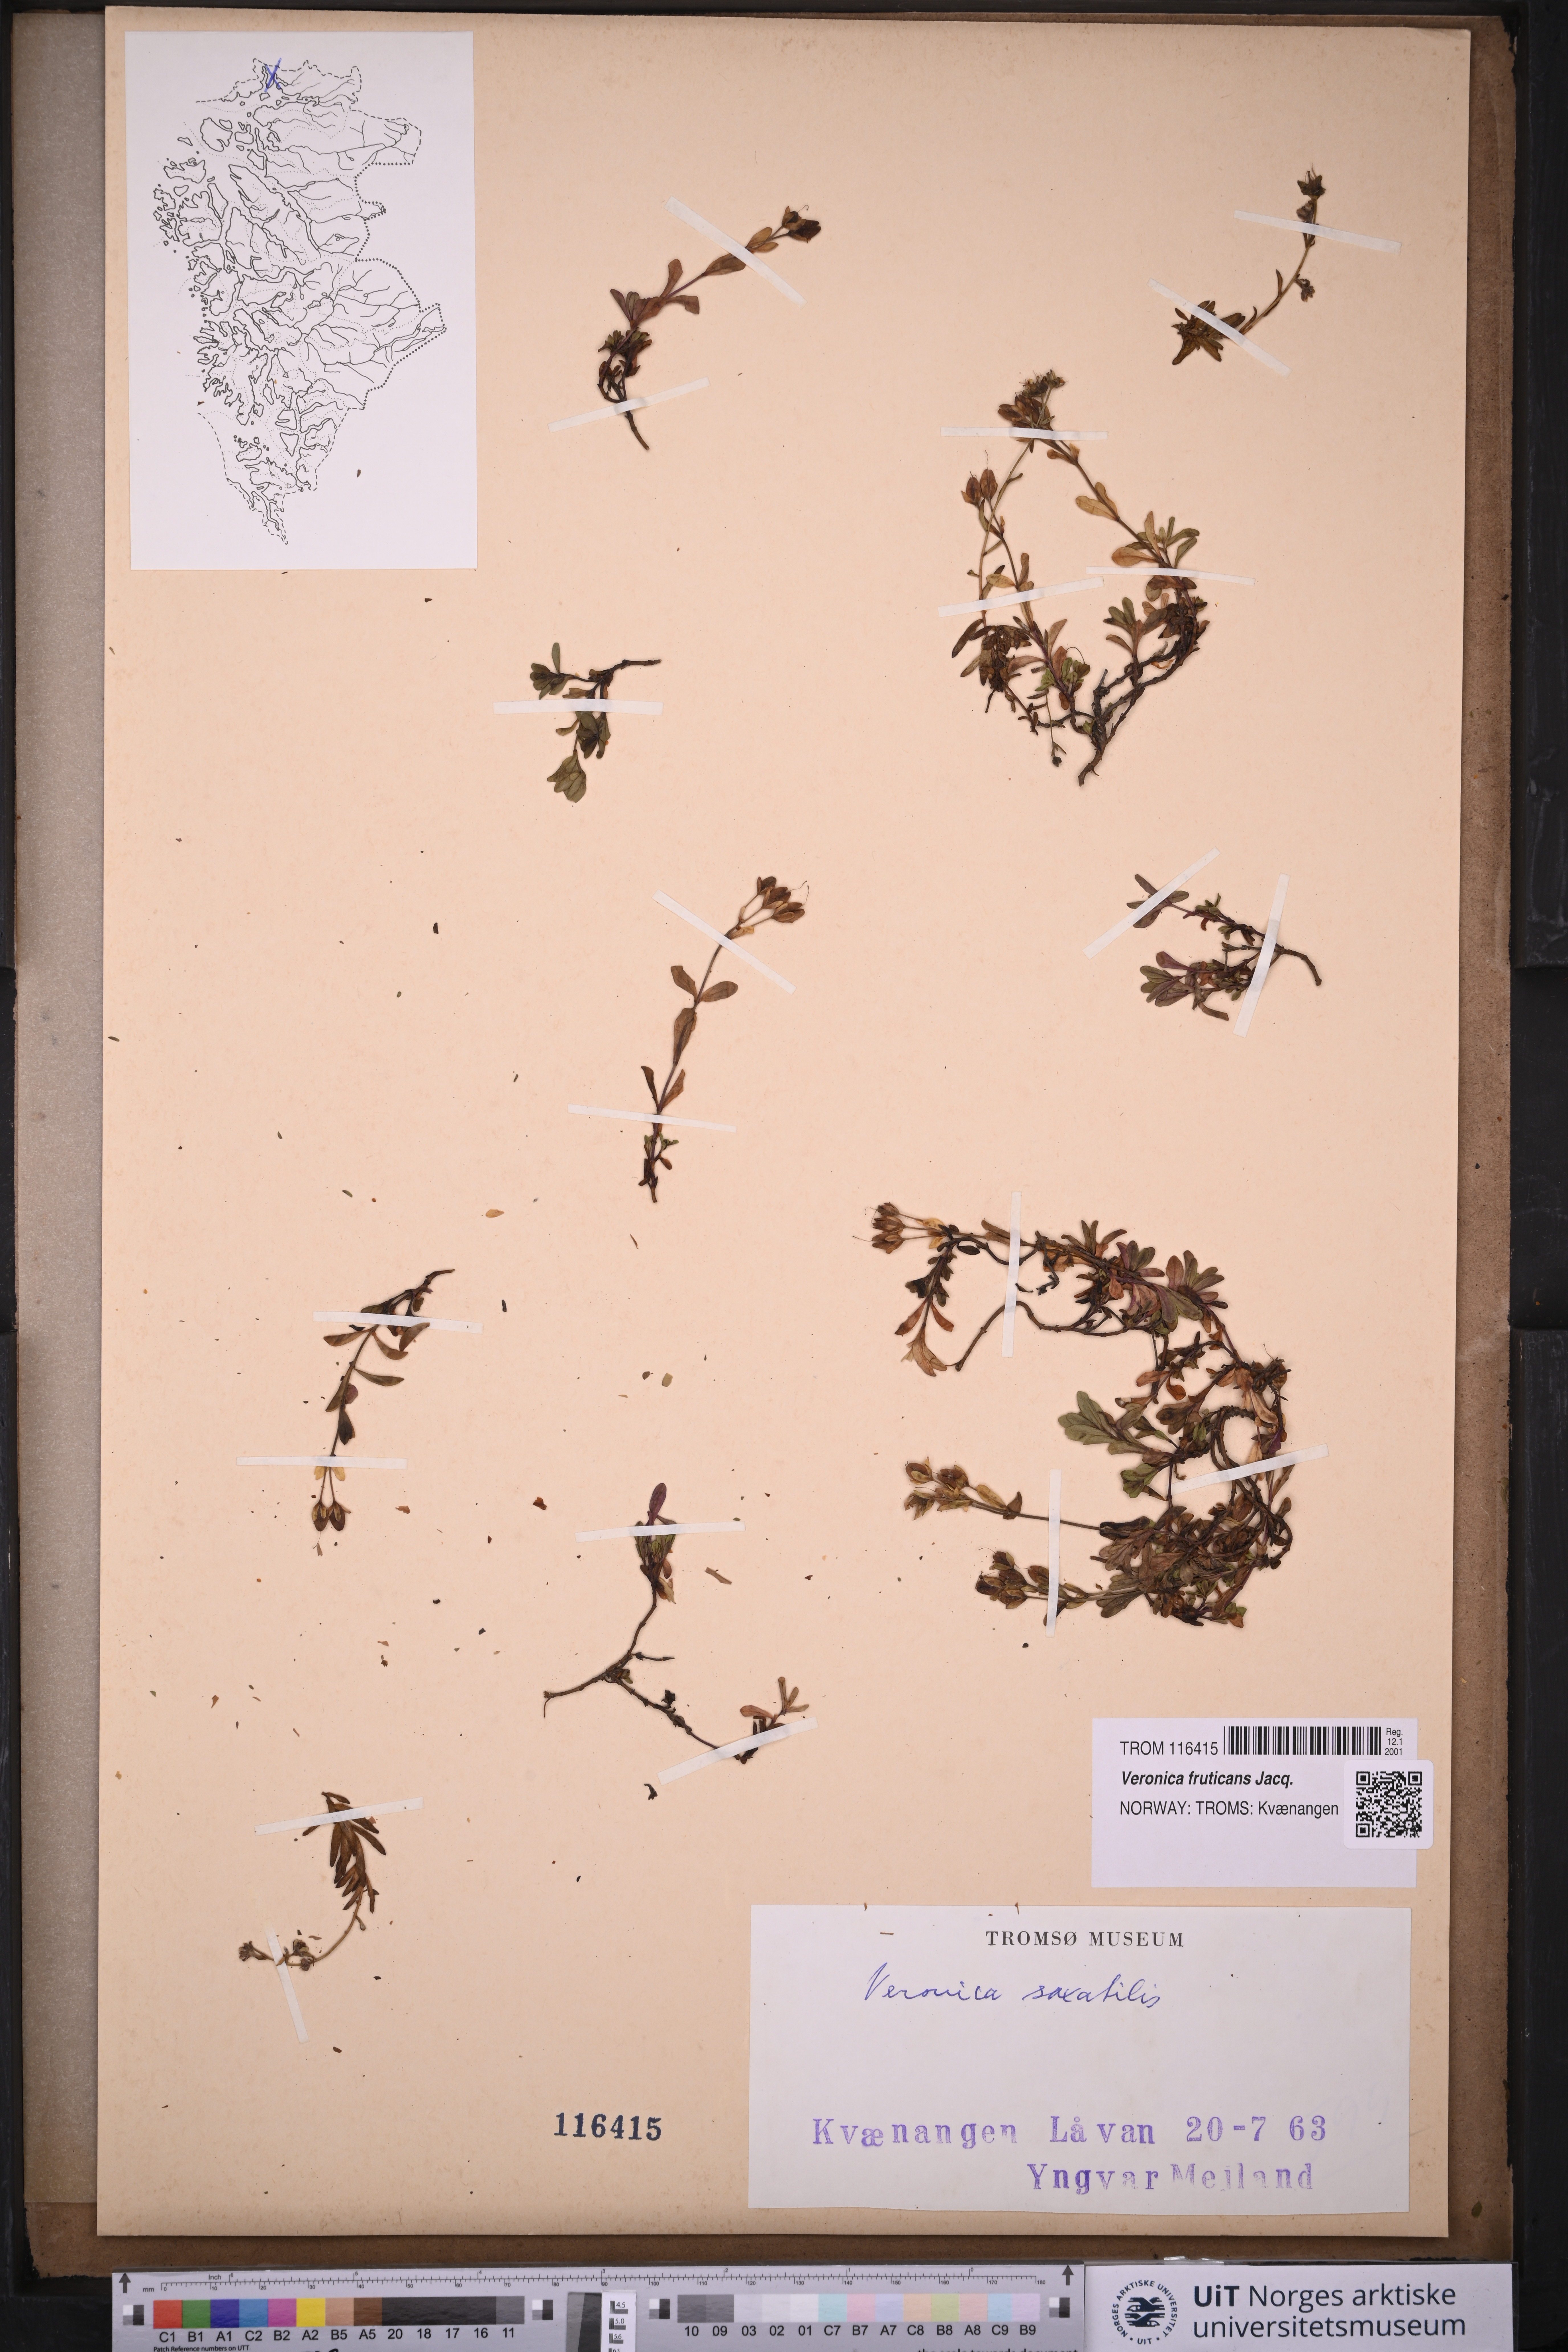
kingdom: Plantae
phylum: Tracheophyta
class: Magnoliopsida
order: Lamiales
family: Plantaginaceae
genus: Veronica
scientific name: Veronica fruticans
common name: Rock speedwell
